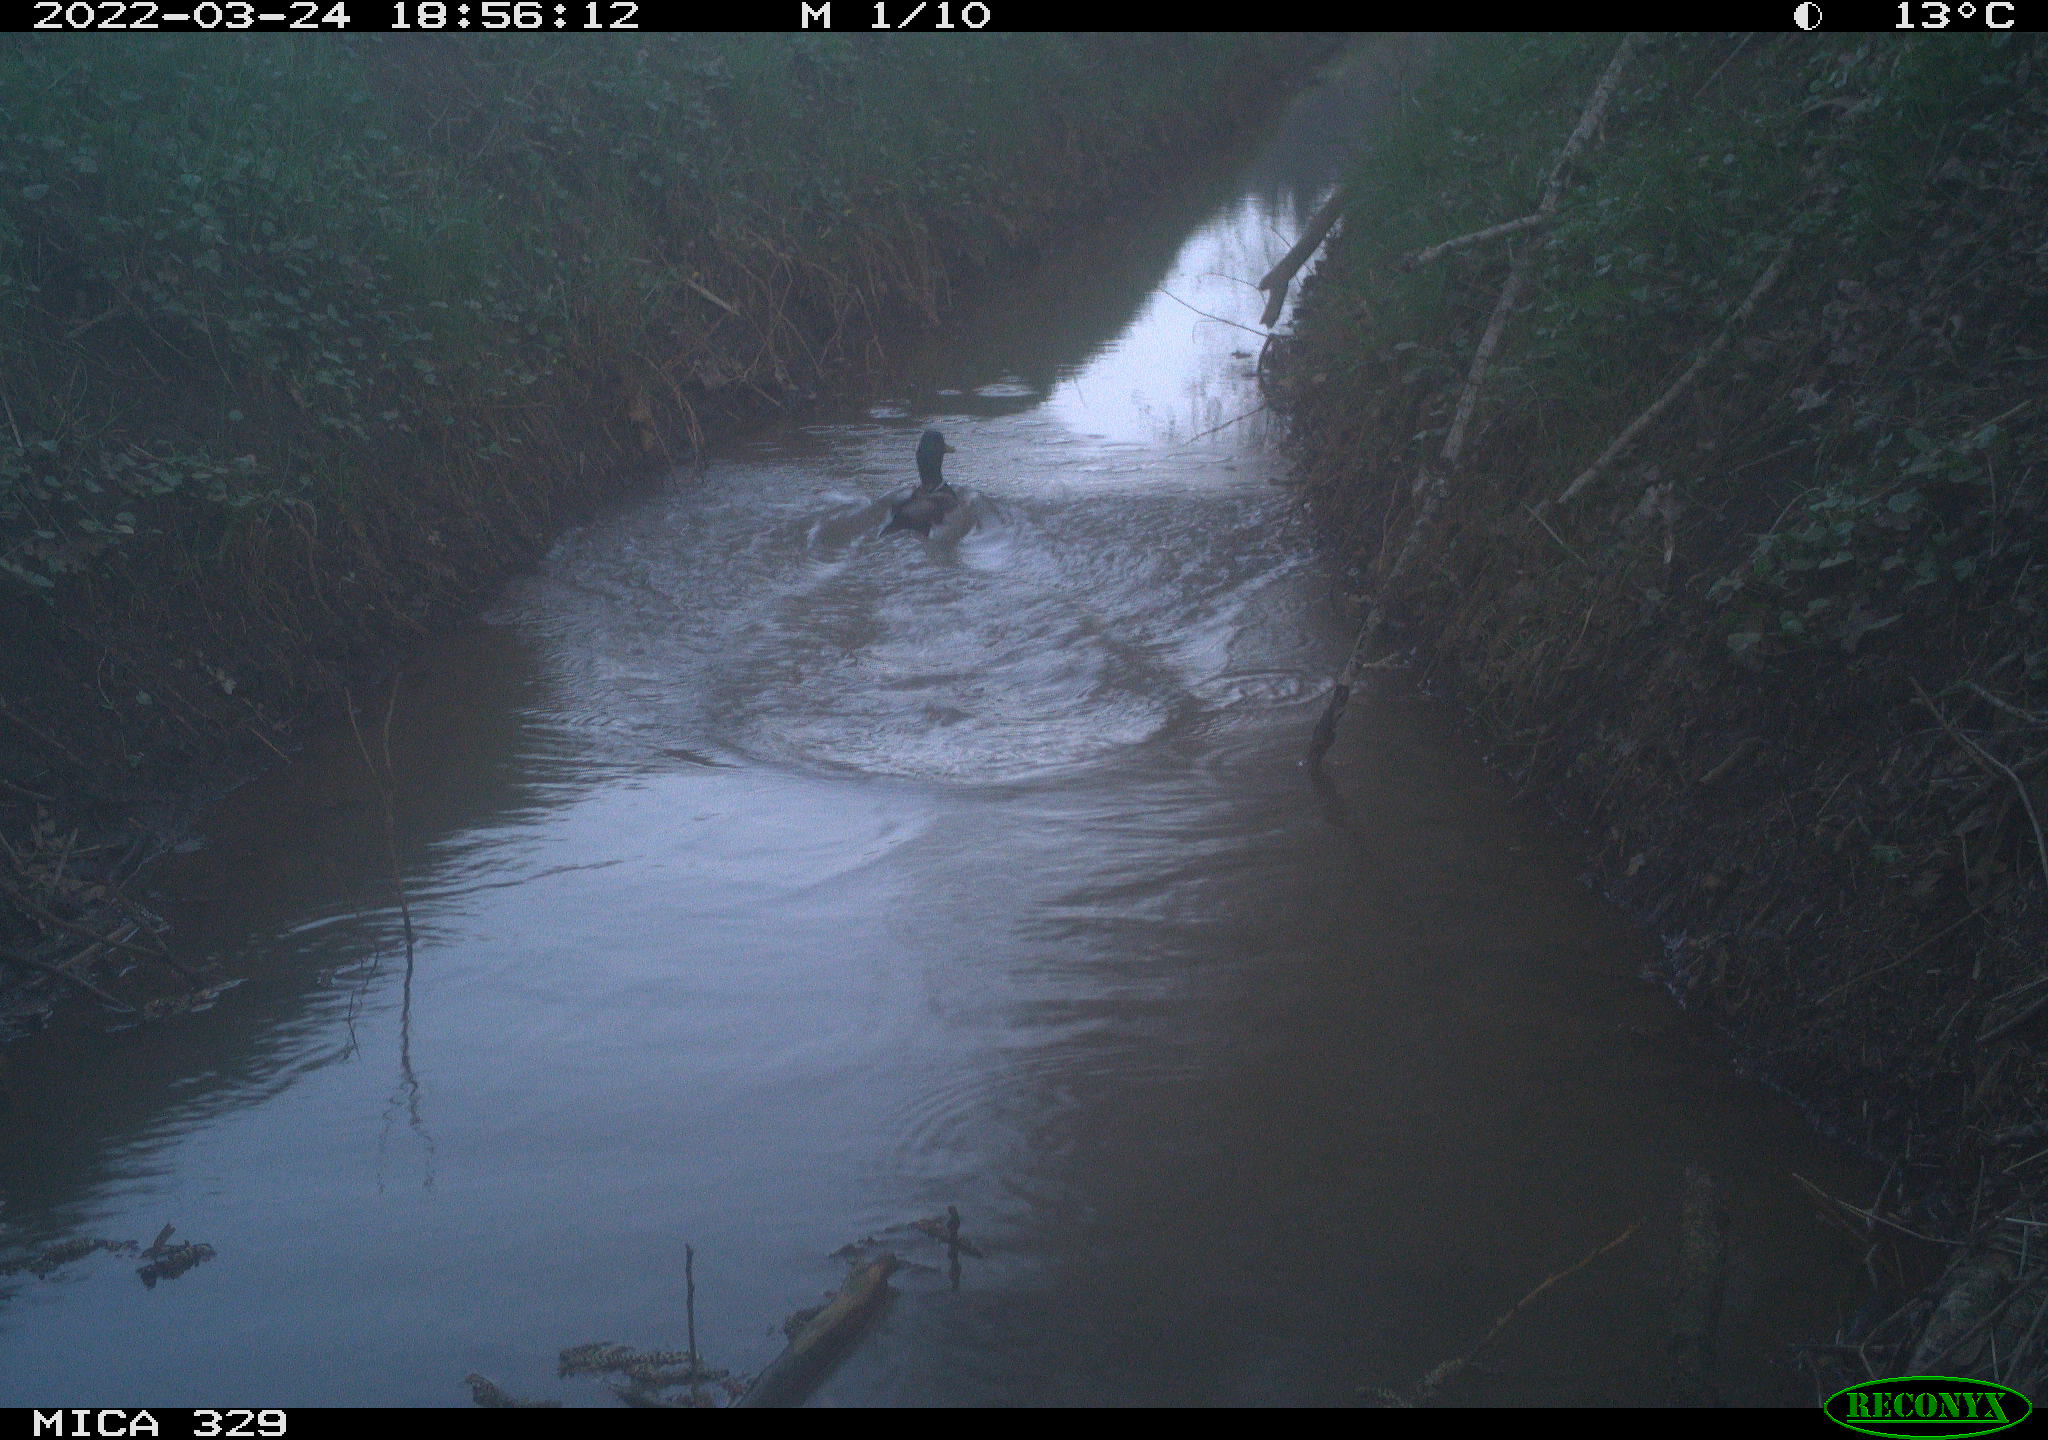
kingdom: Animalia
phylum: Chordata
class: Aves
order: Anseriformes
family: Anatidae
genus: Anas
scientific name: Anas platyrhynchos
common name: Mallard
